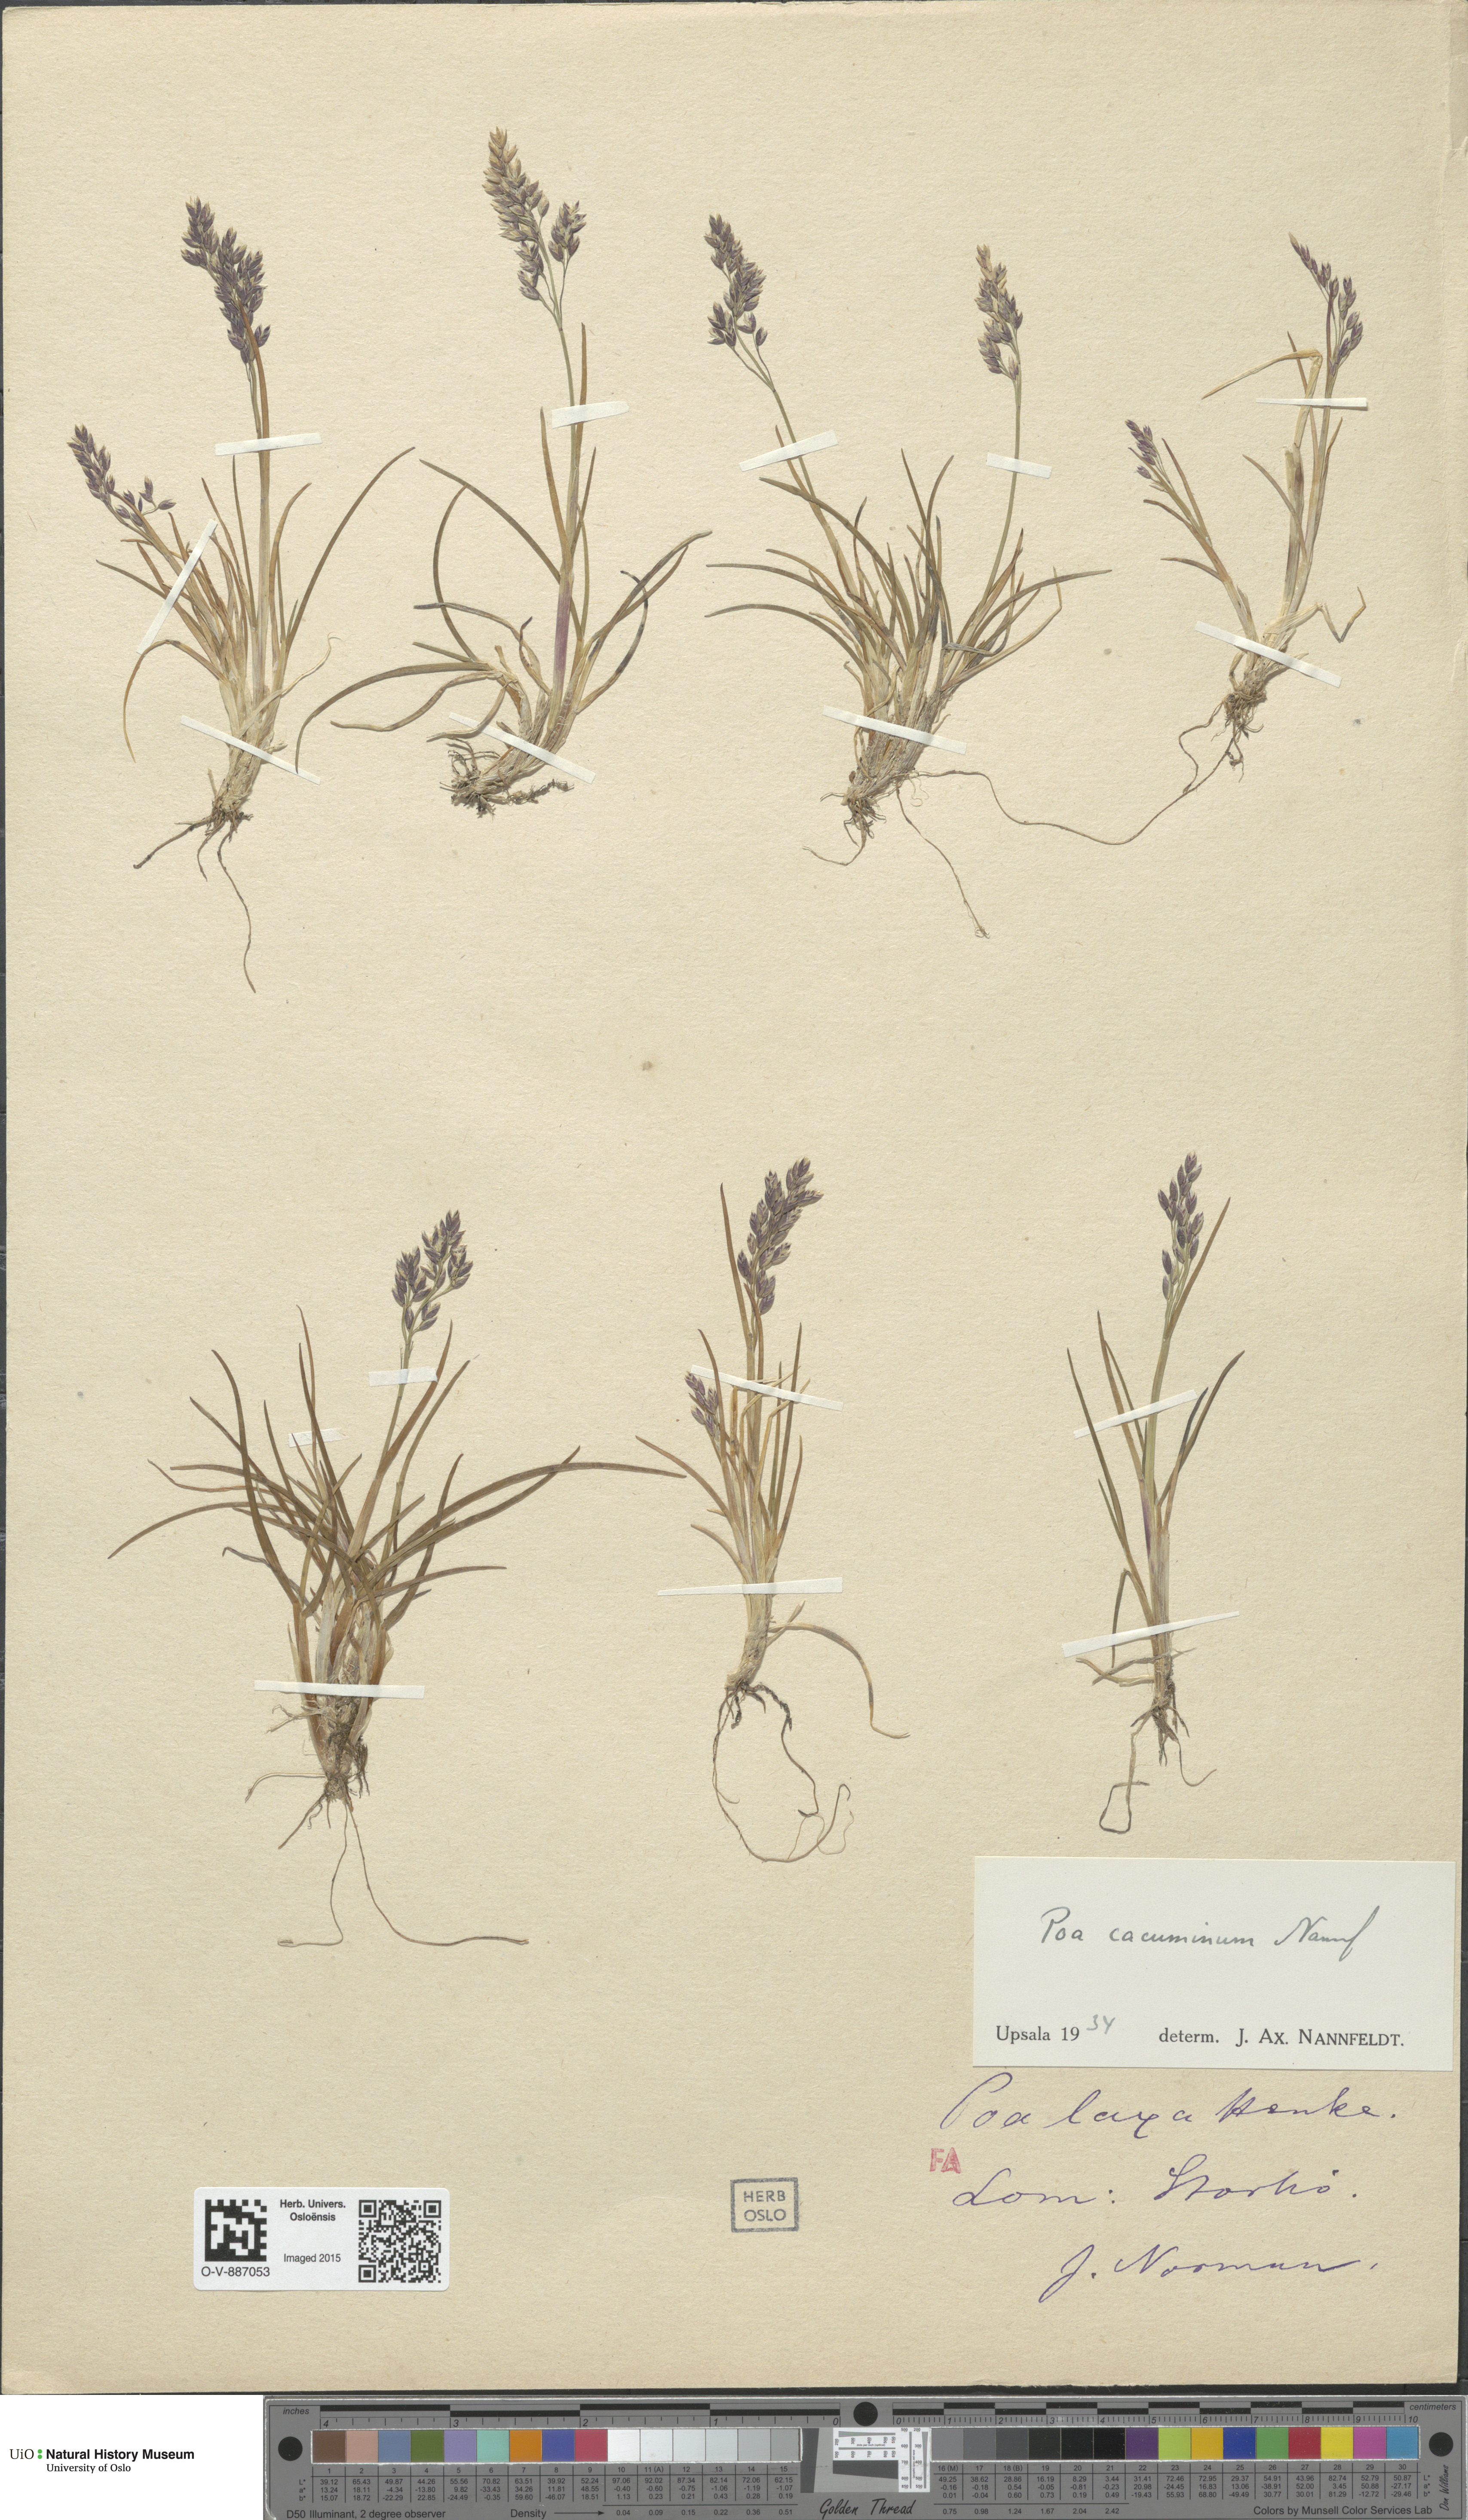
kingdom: Plantae
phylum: Tracheophyta
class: Liliopsida
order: Poales
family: Poaceae
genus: Poa
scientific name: Poa flexuosa
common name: Wavy meadow-grass
